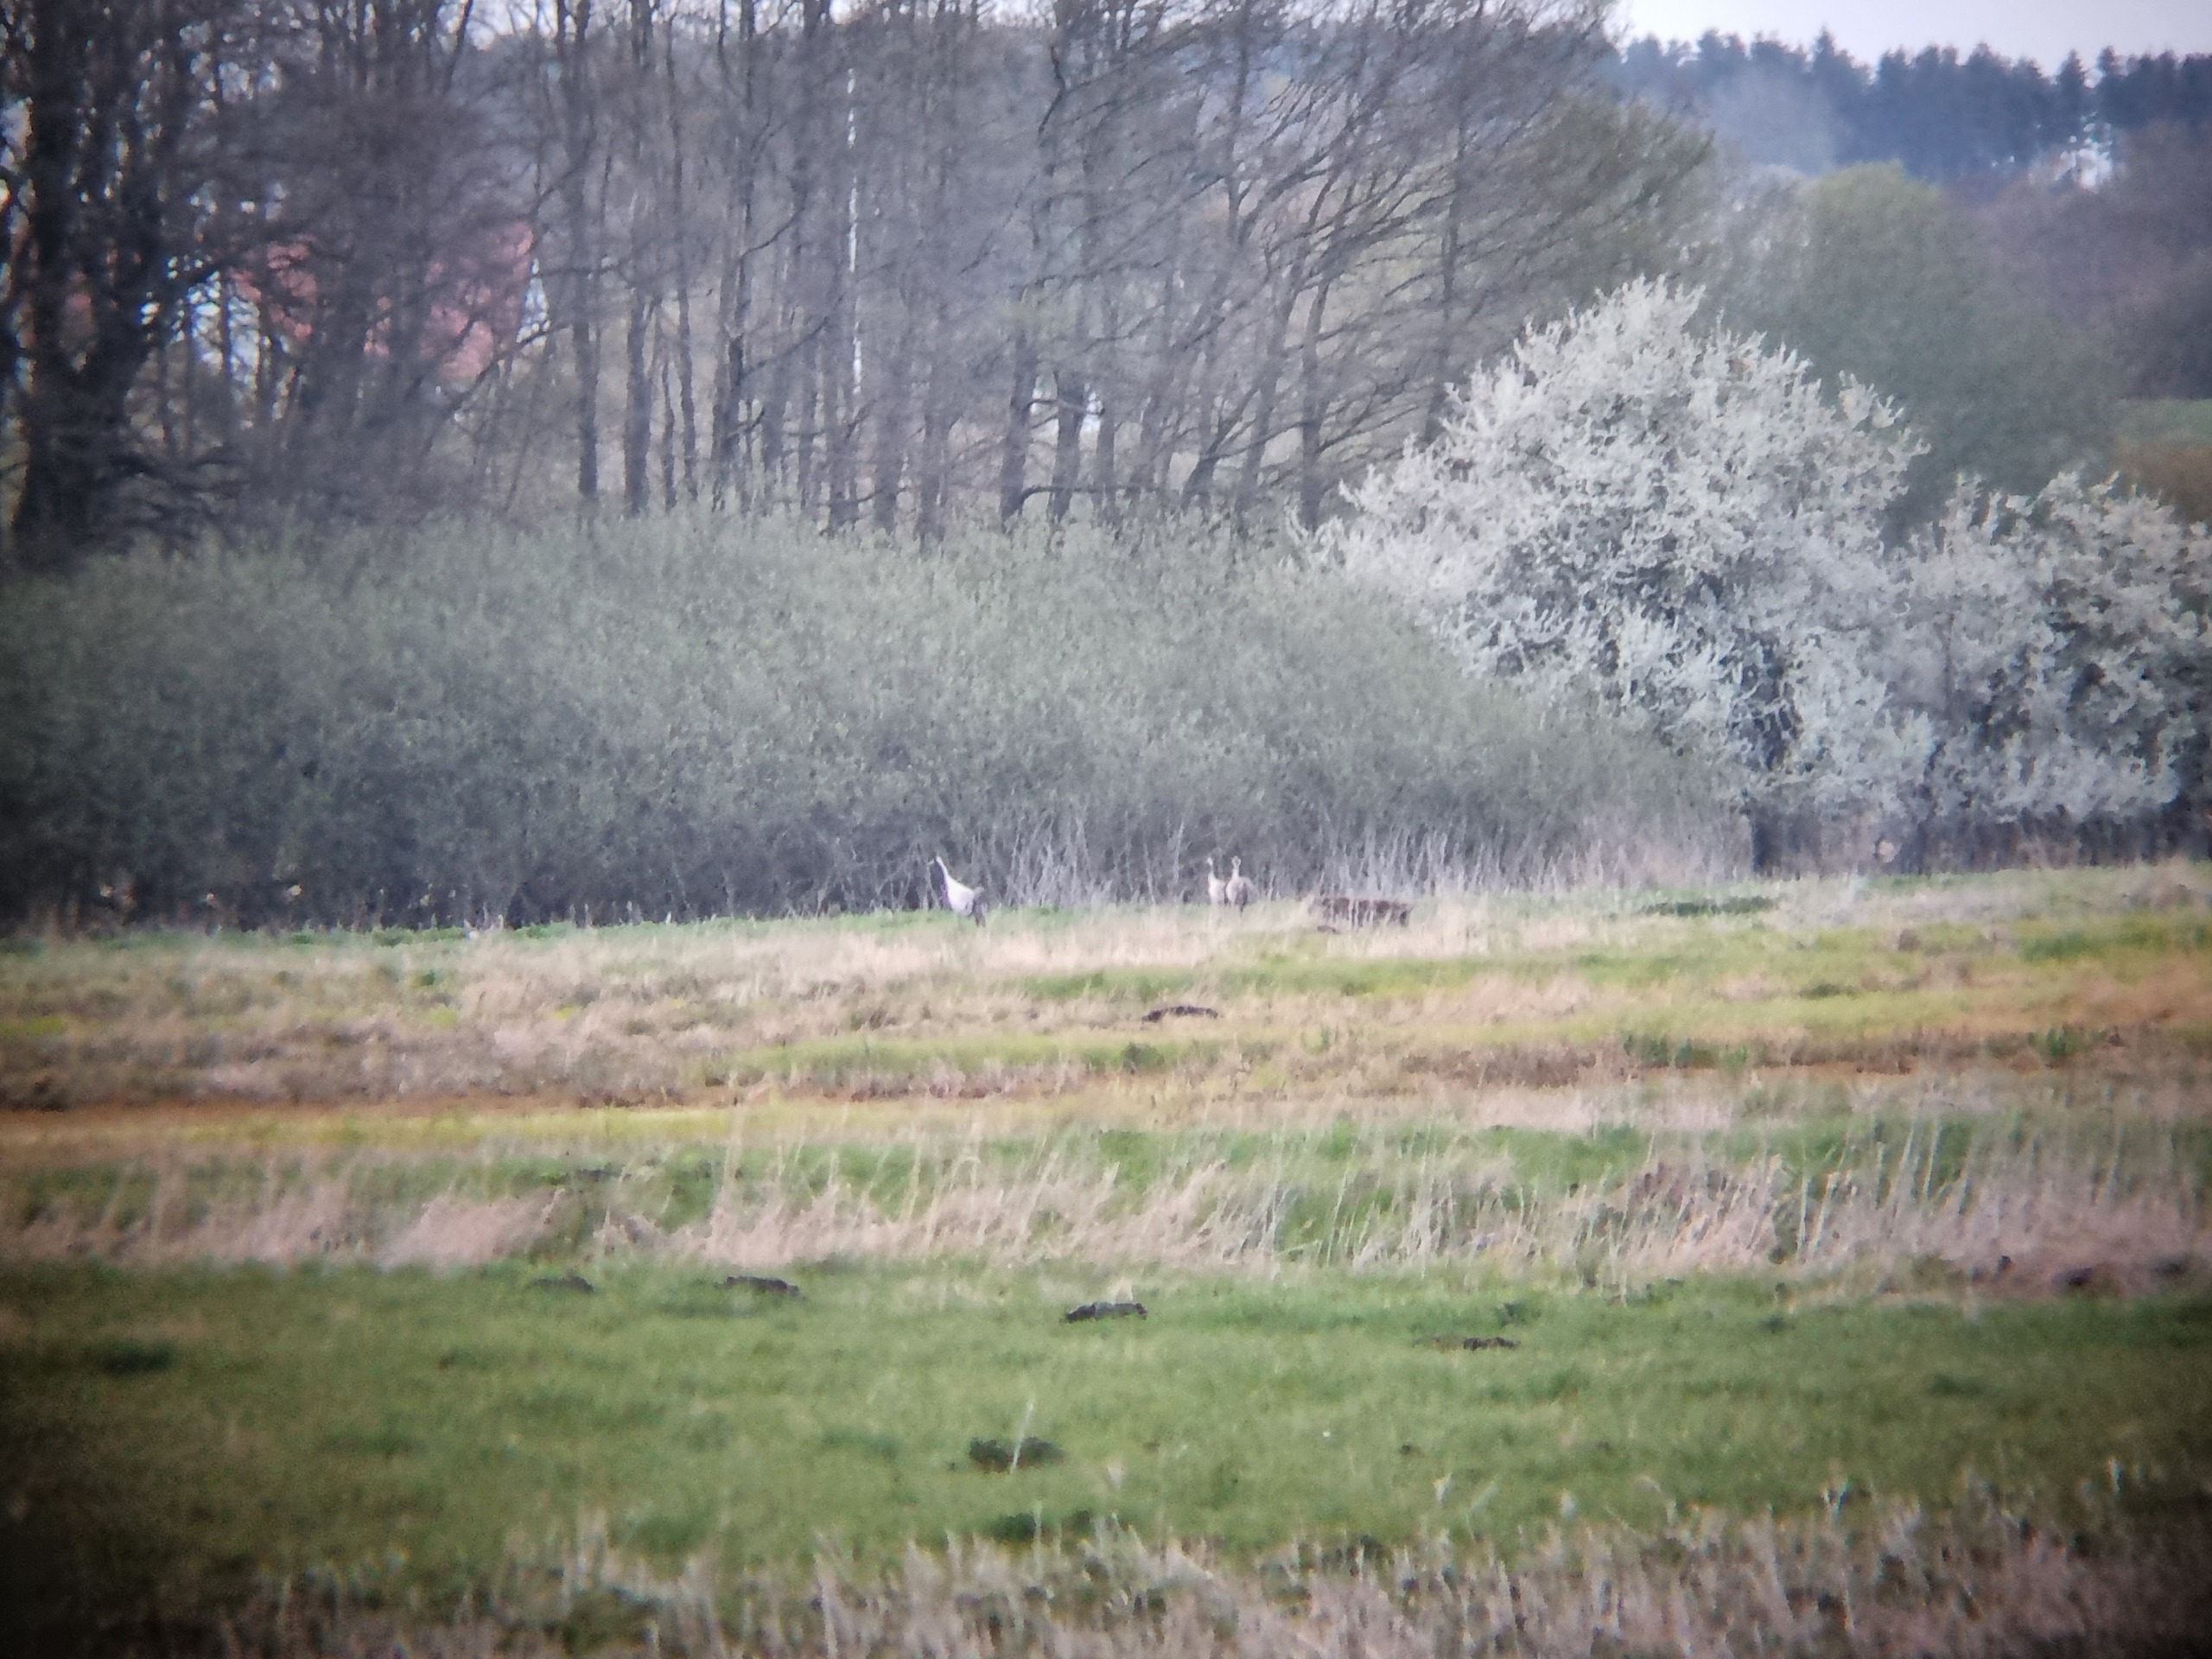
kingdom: Animalia
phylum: Chordata
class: Aves
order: Gruiformes
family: Gruidae
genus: Grus
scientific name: Grus grus
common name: Trane
